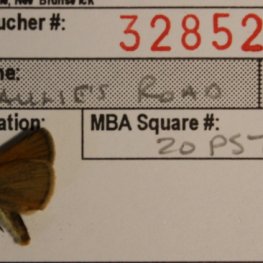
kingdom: Animalia
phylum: Arthropoda
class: Insecta
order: Lepidoptera
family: Hesperiidae
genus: Thymelicus
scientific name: Thymelicus lineola
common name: European Skipper
